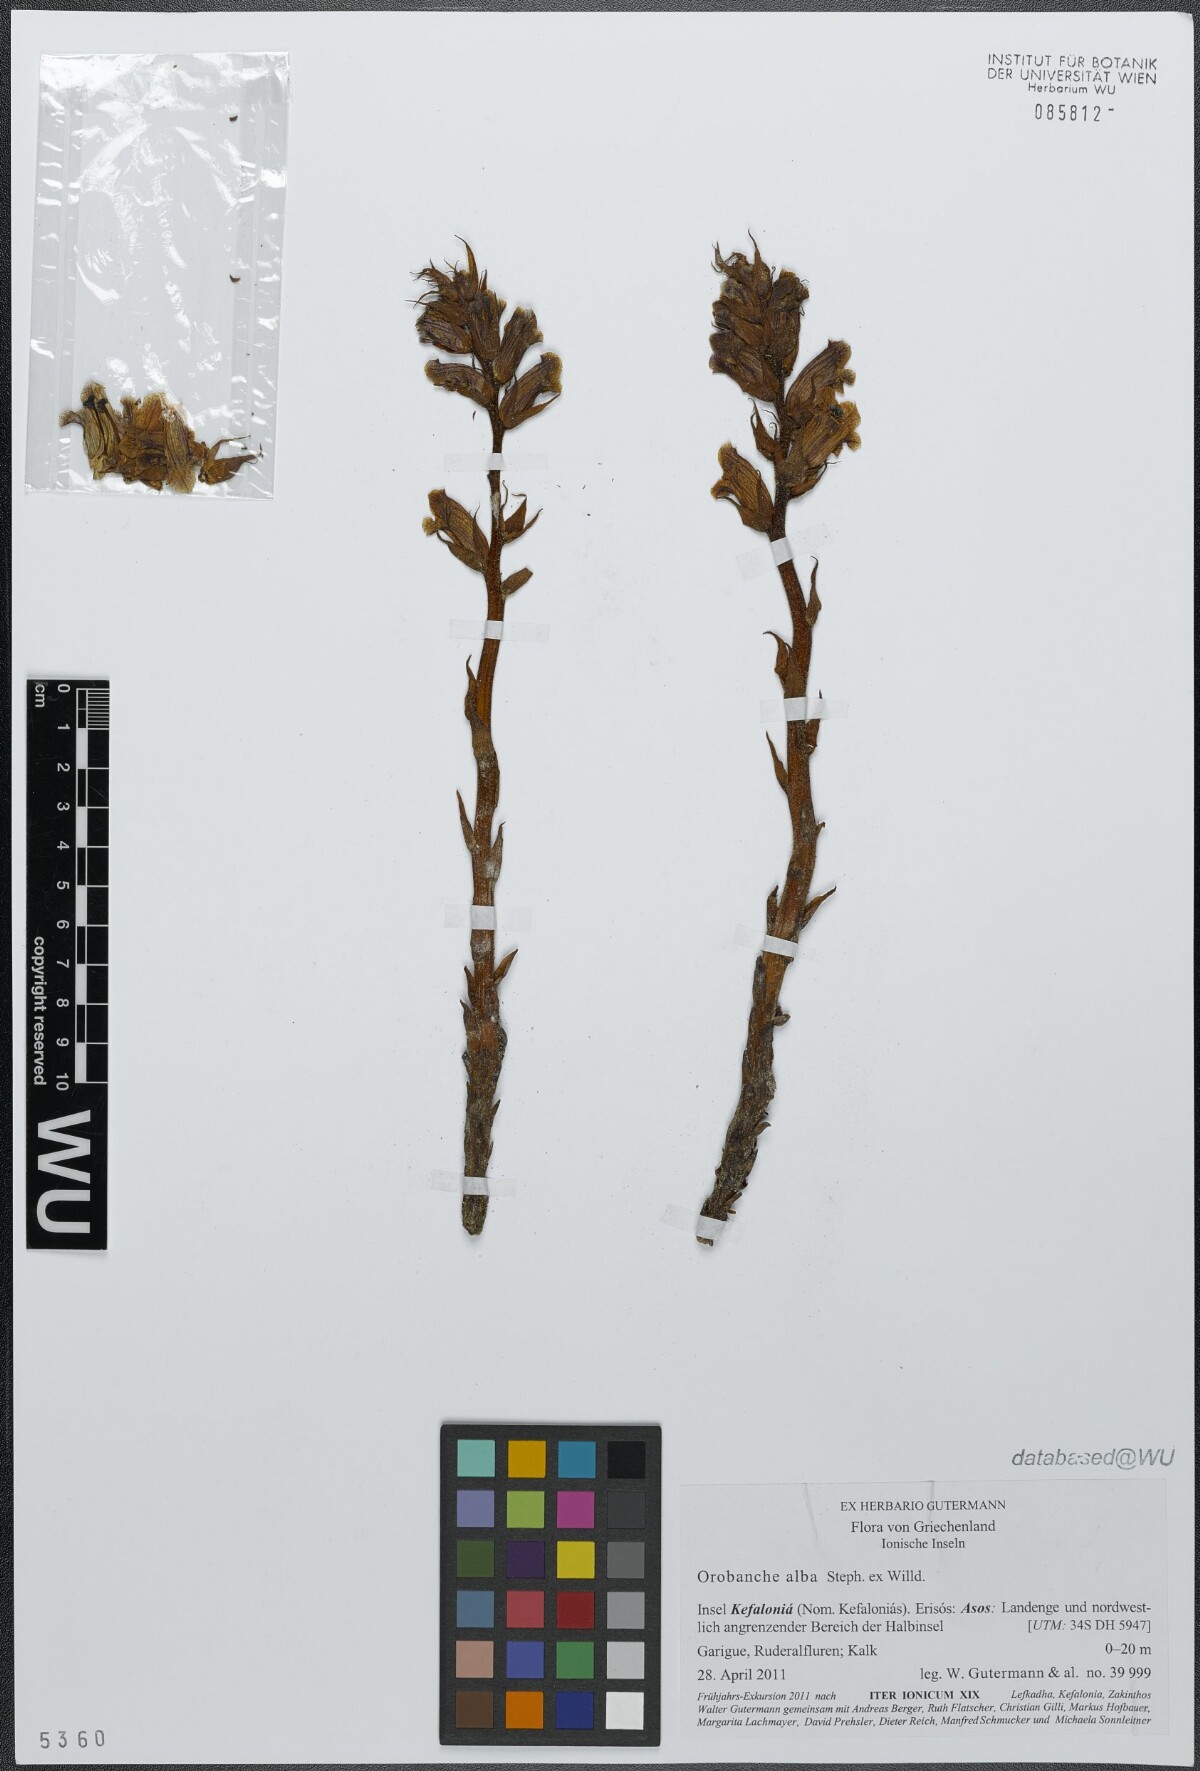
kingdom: Plantae
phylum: Tracheophyta
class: Magnoliopsida
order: Lamiales
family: Orobanchaceae
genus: Orobanche
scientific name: Orobanche alba
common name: Thyme broomrape
